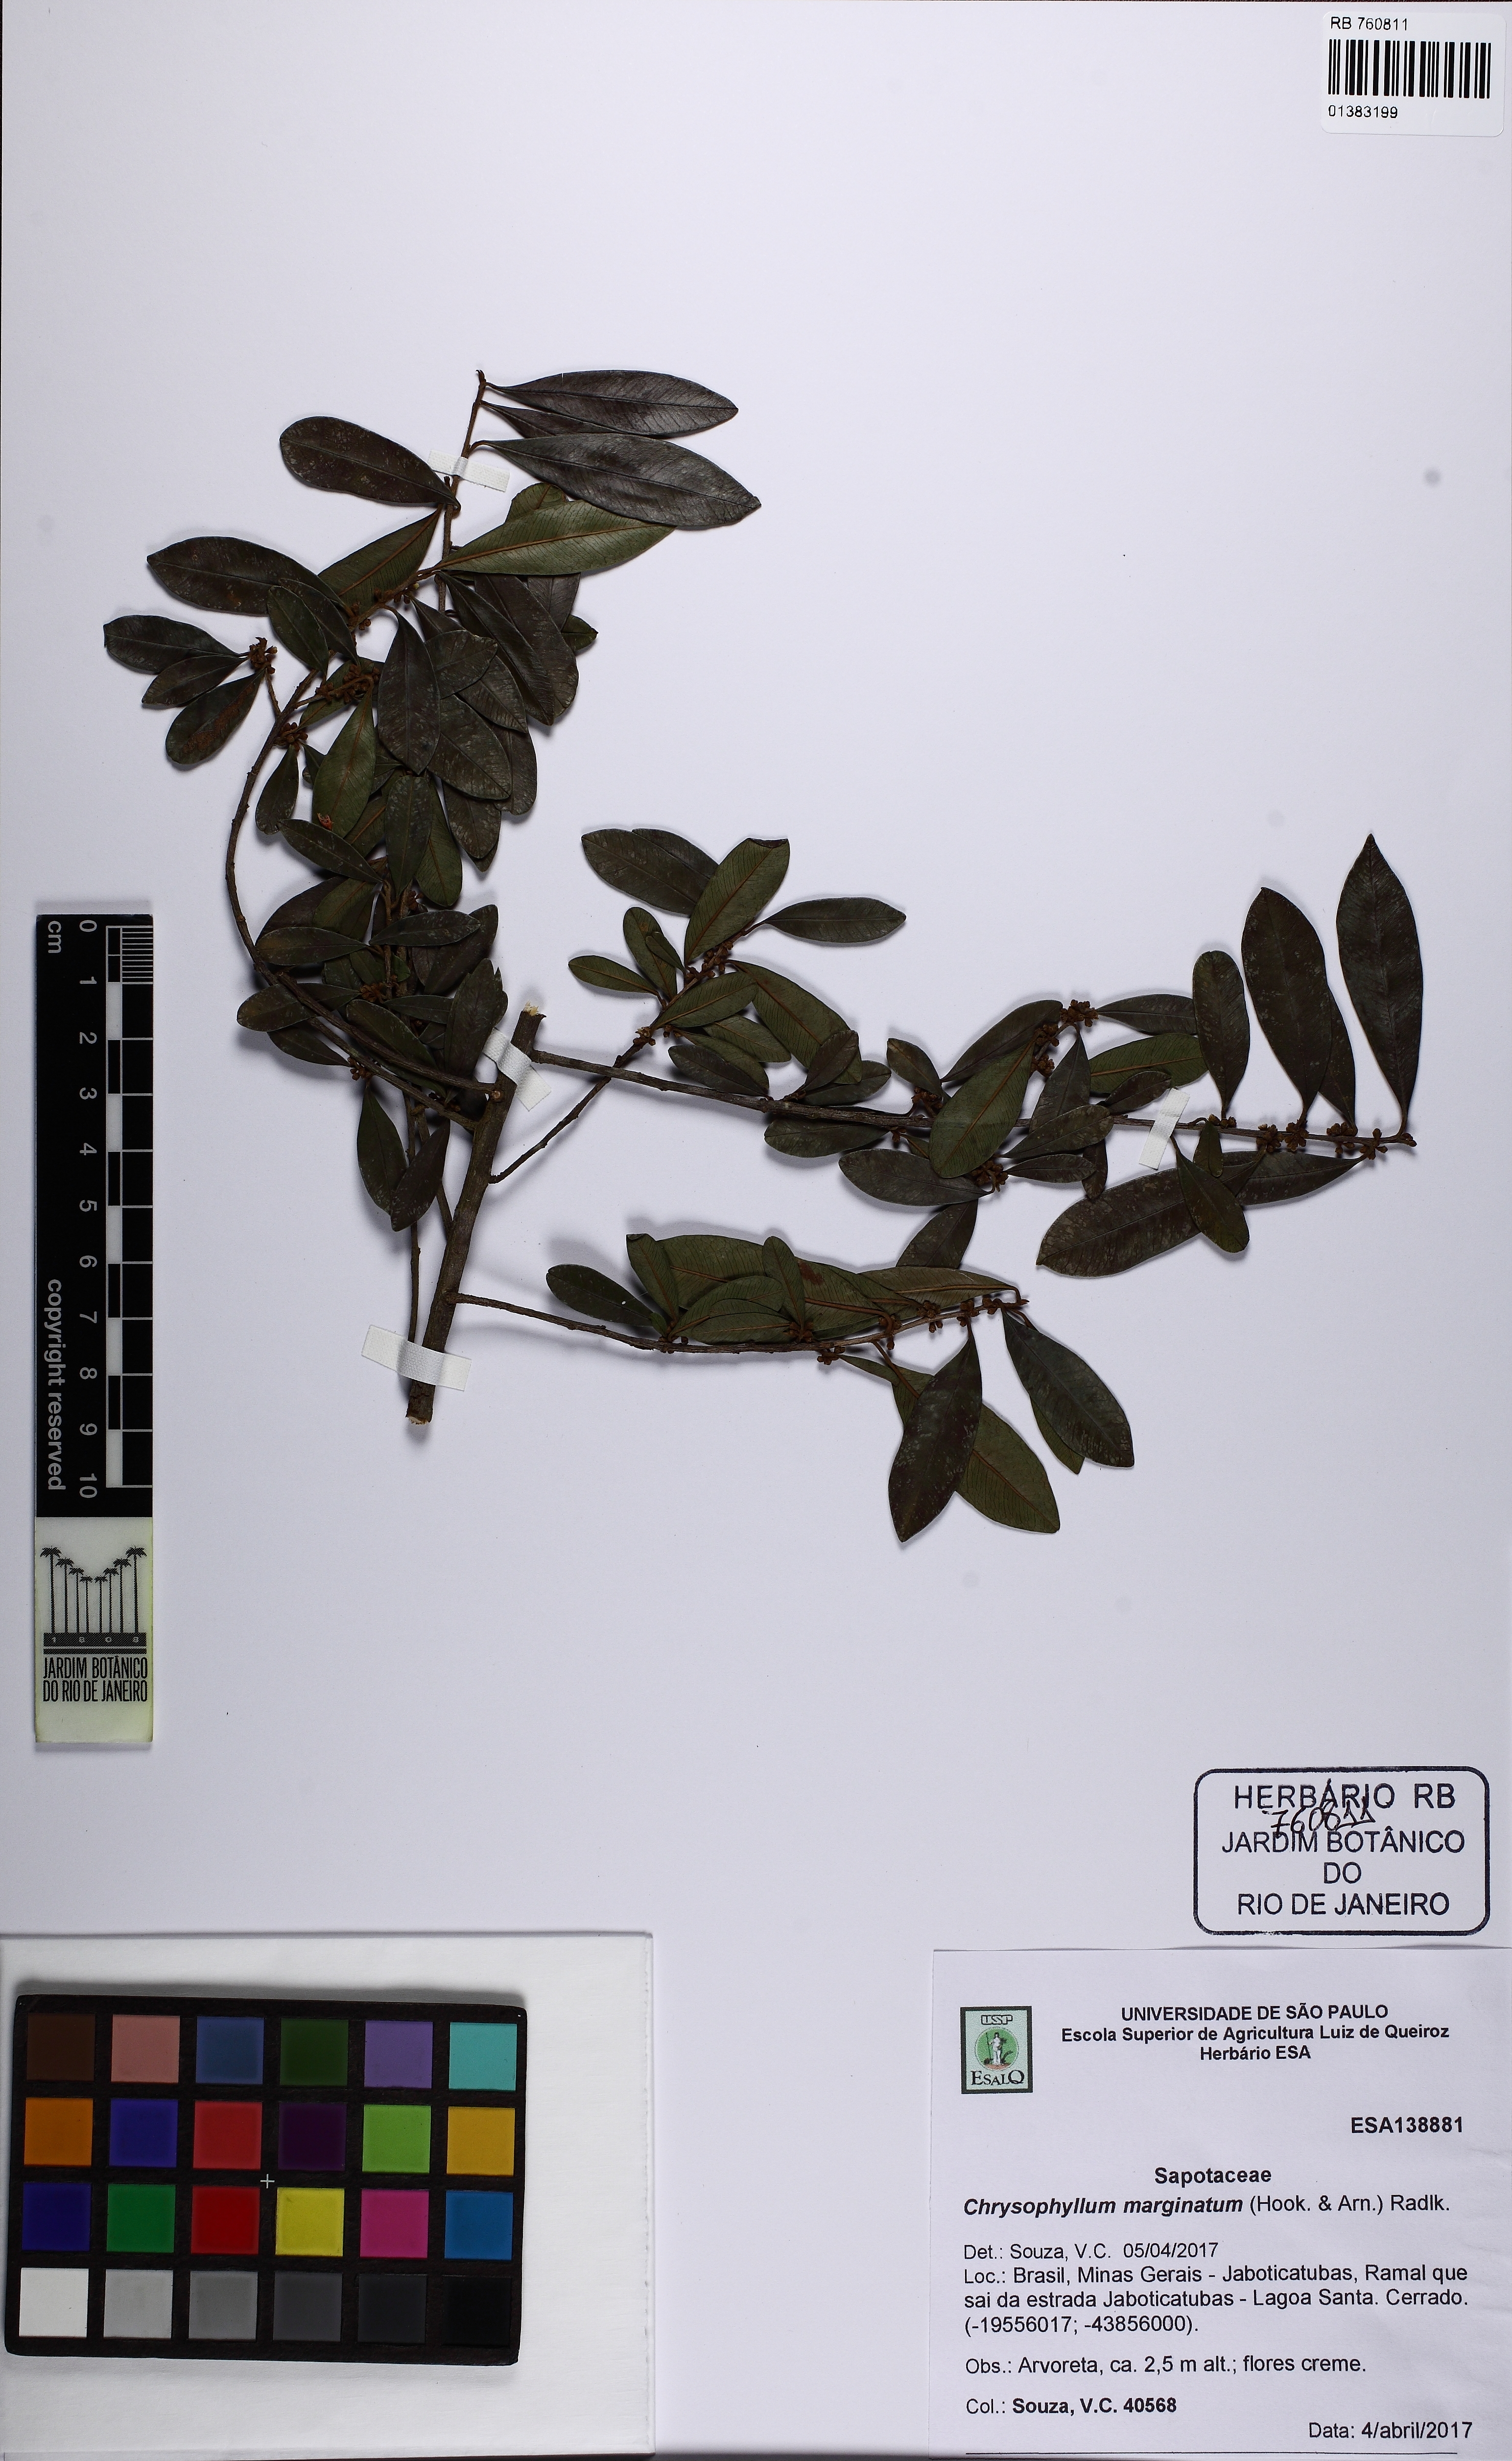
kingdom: Plantae
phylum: Tracheophyta
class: Magnoliopsida
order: Ericales
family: Sapotaceae
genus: Chrysophyllum
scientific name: Chrysophyllum marginatum
